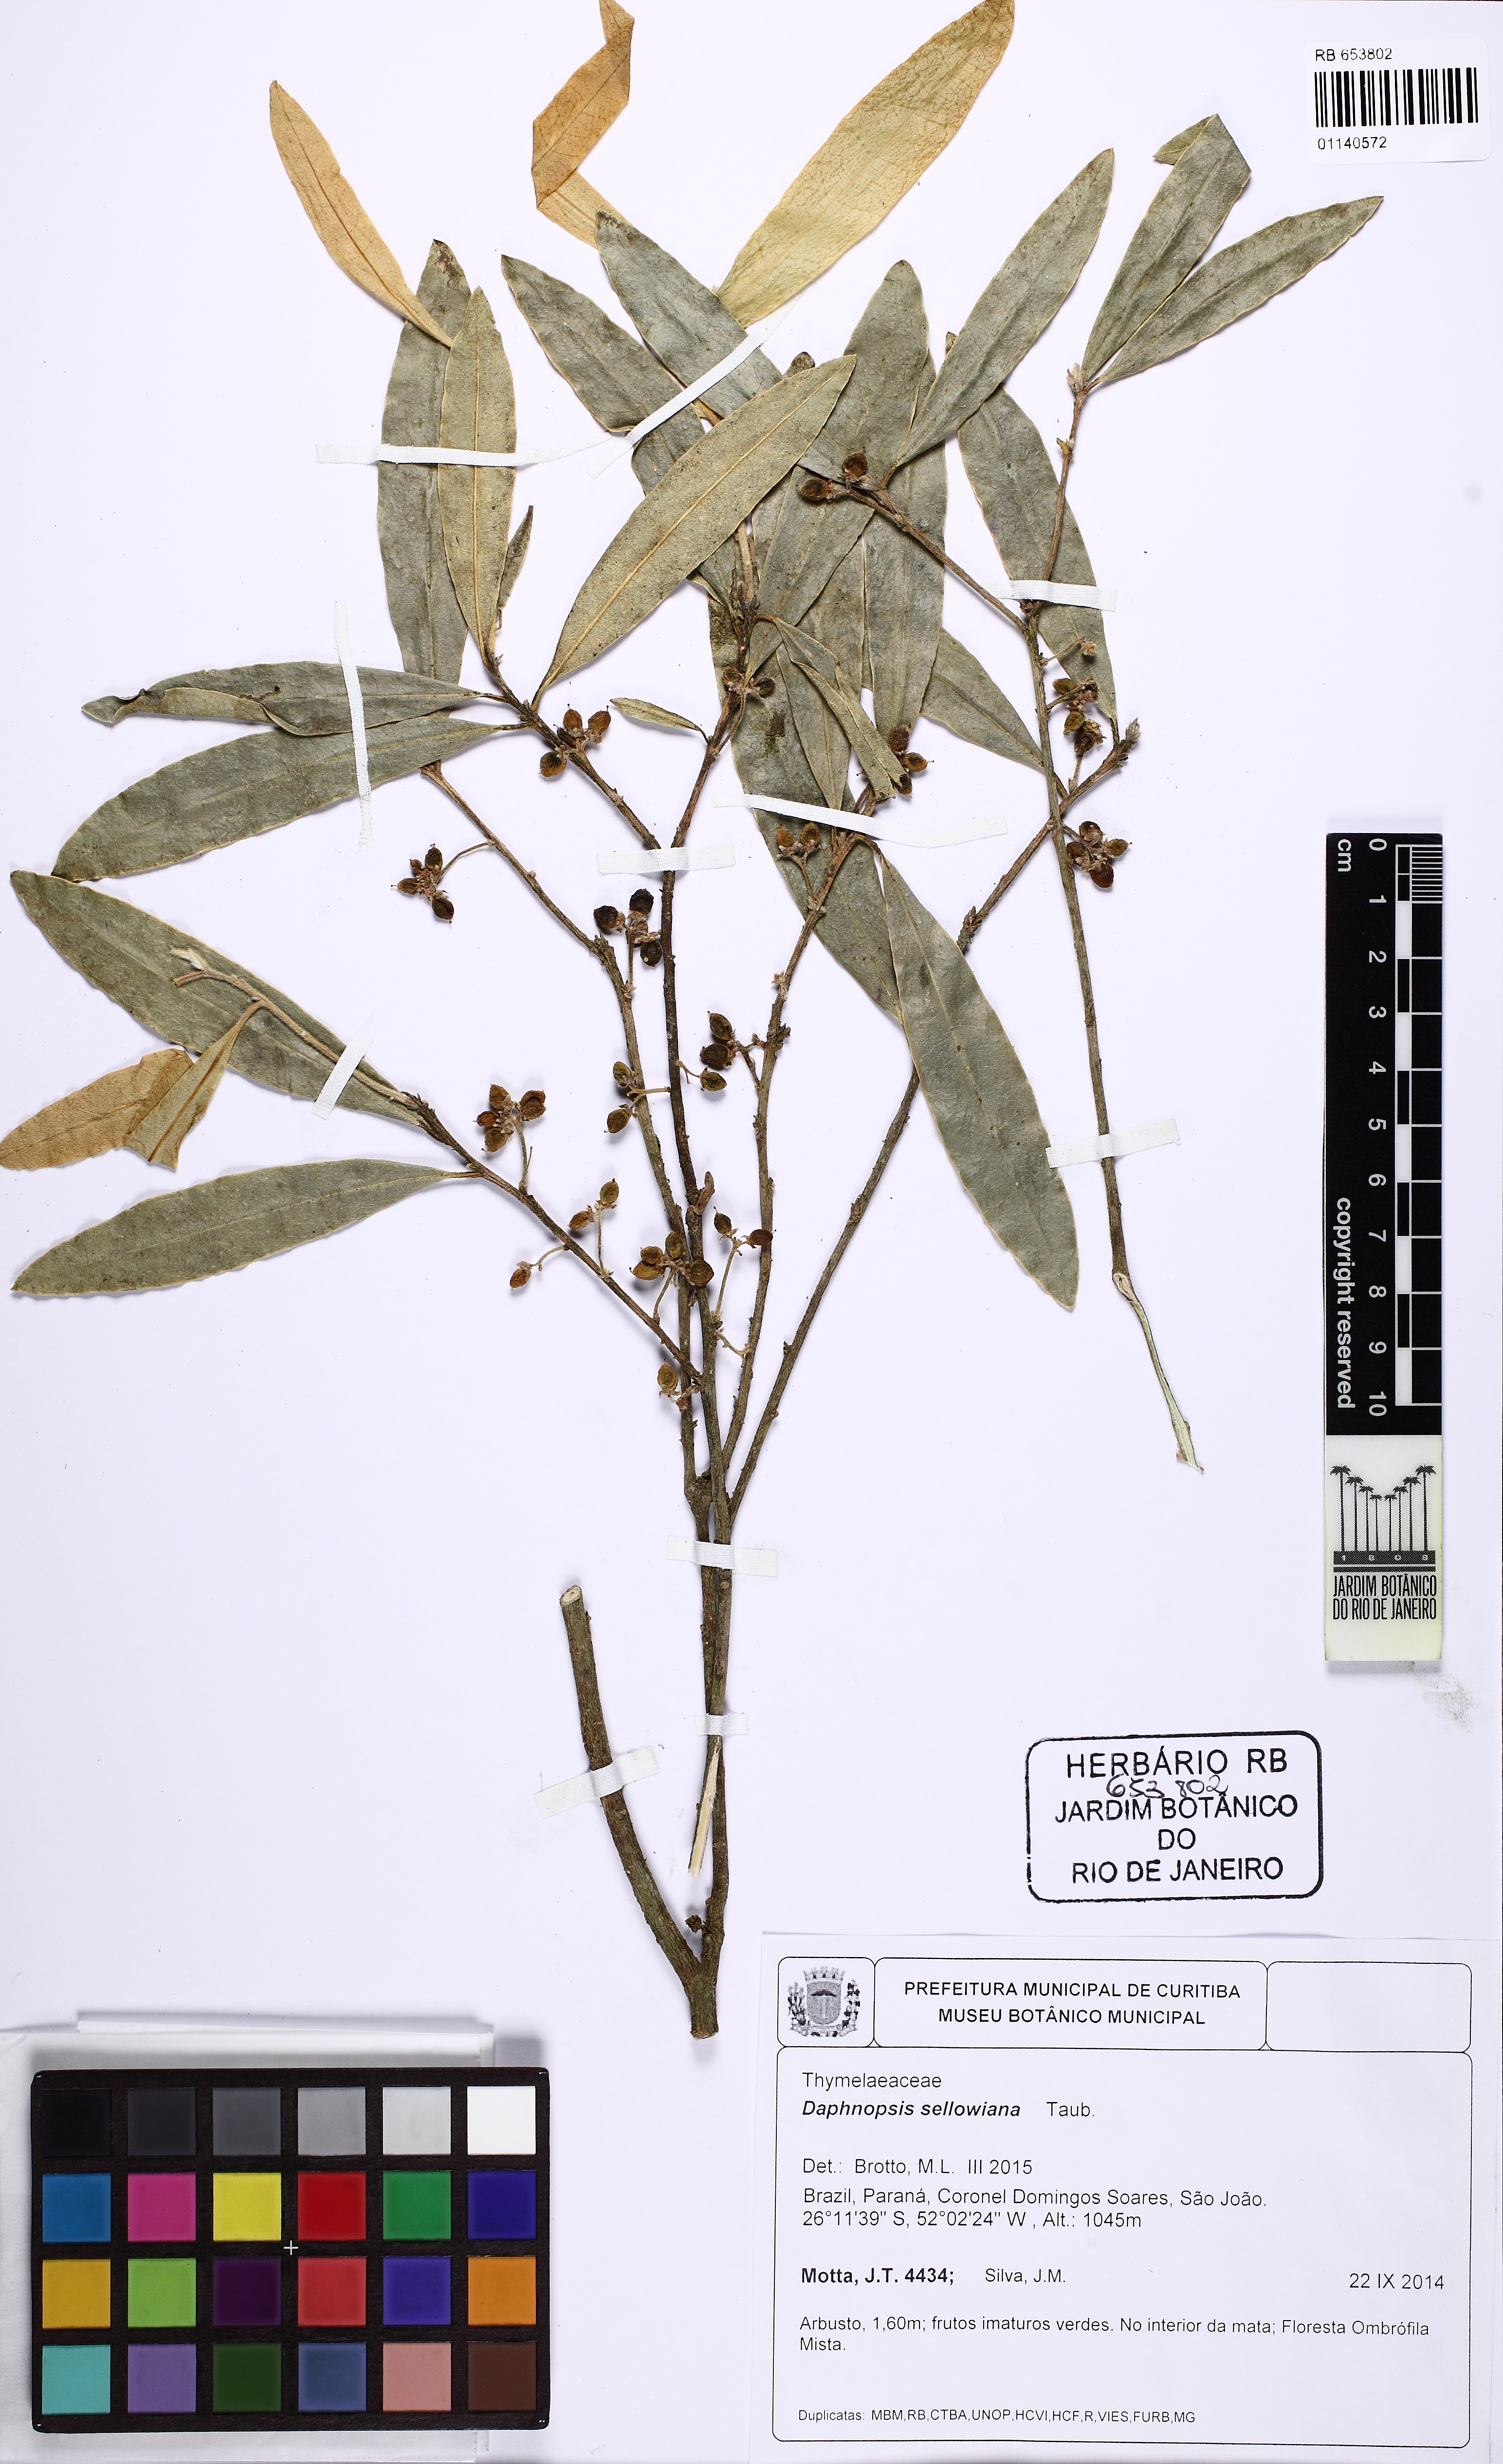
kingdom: Plantae
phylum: Tracheophyta
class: Magnoliopsida
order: Malvales
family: Thymelaeaceae
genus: Daphnopsis
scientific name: Daphnopsis sellowiana
